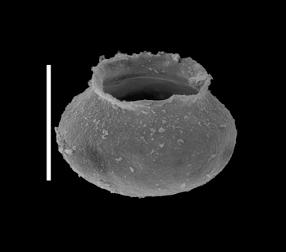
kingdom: Animalia
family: Desmochitinidae
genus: Calpichitina
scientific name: Calpichitina
